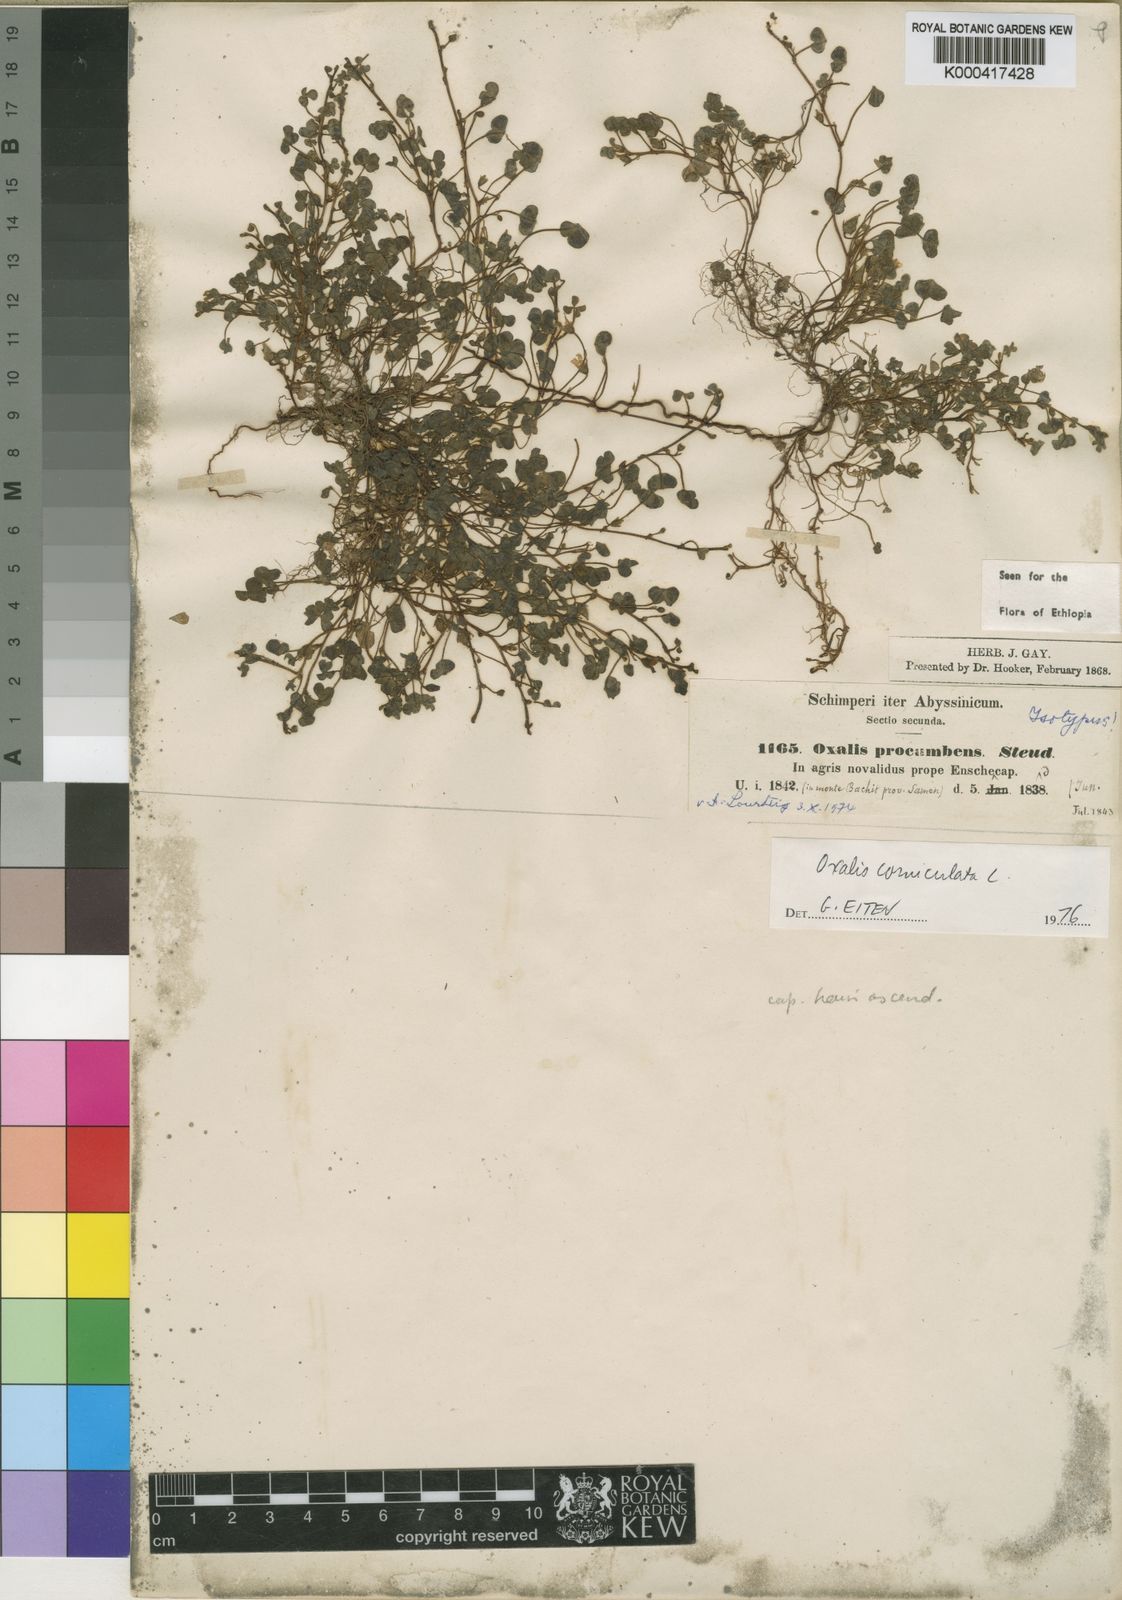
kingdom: Plantae
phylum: Tracheophyta
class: Magnoliopsida
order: Oxalidales
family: Oxalidaceae
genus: Oxalis
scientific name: Oxalis procumbens
